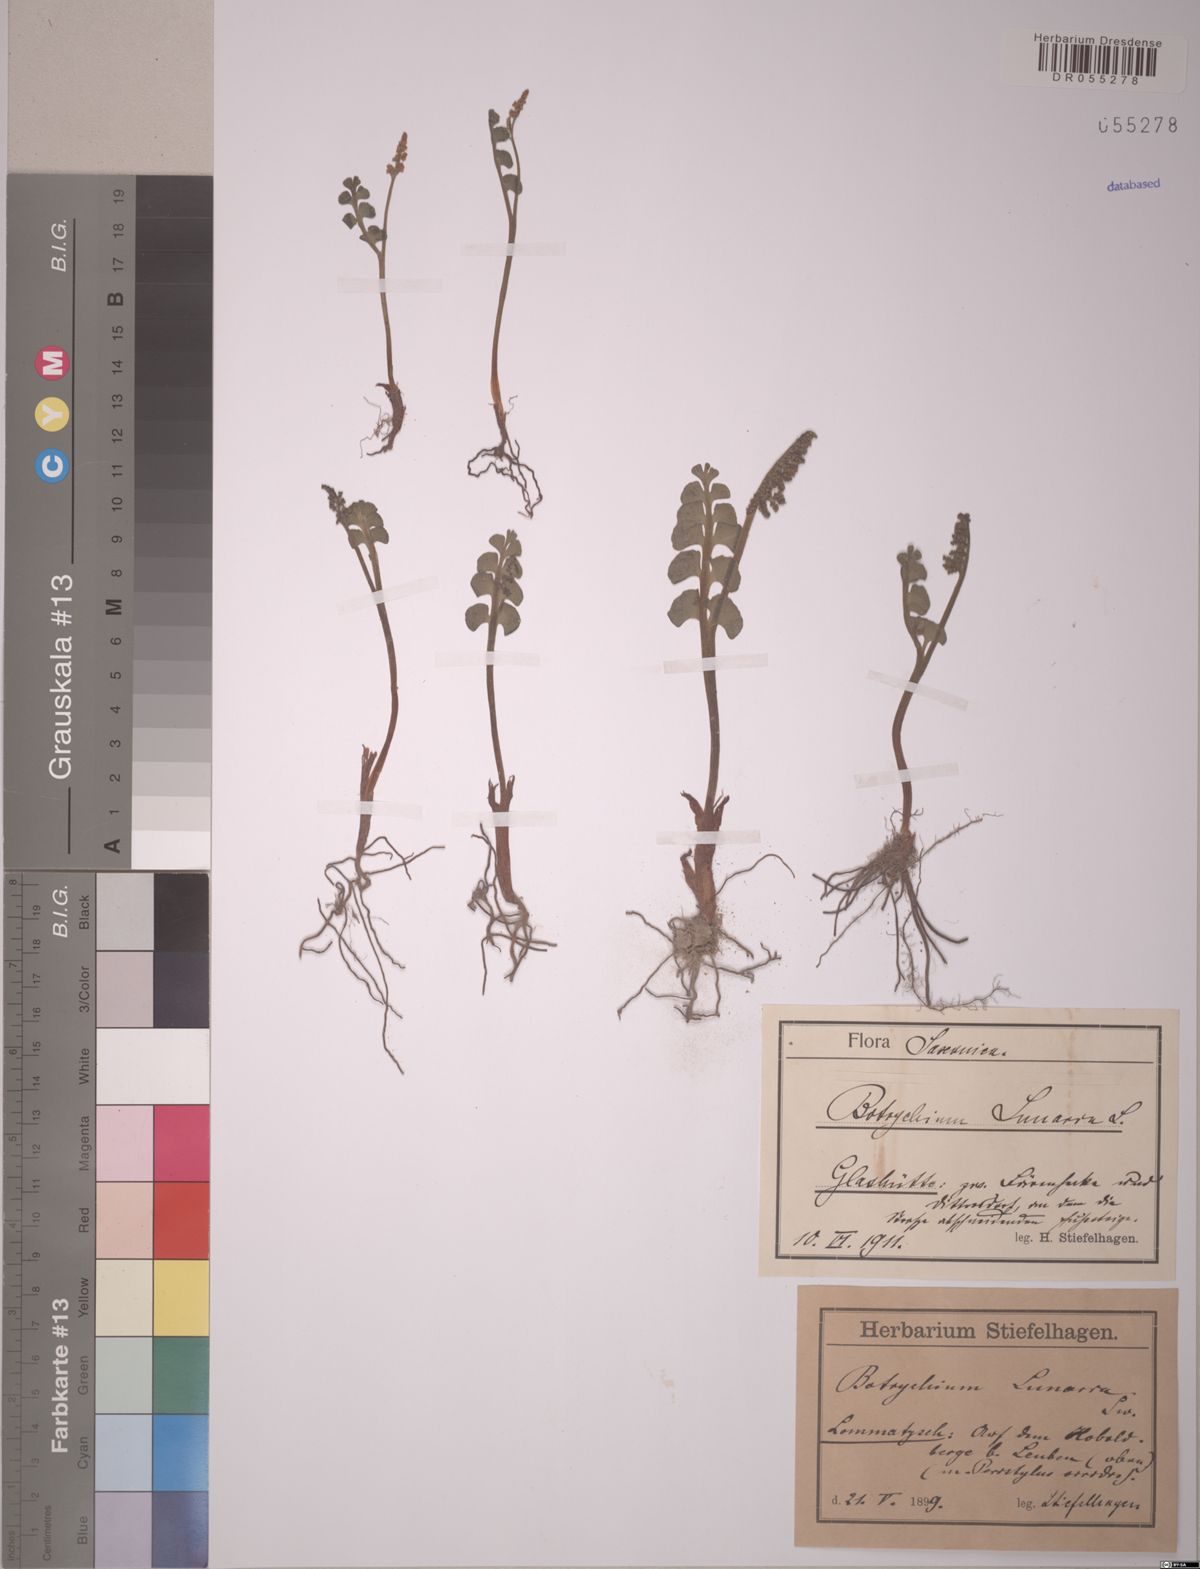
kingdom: Plantae
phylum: Tracheophyta
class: Polypodiopsida
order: Ophioglossales
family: Ophioglossaceae
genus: Botrychium
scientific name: Botrychium lunaria
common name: Moonwort
